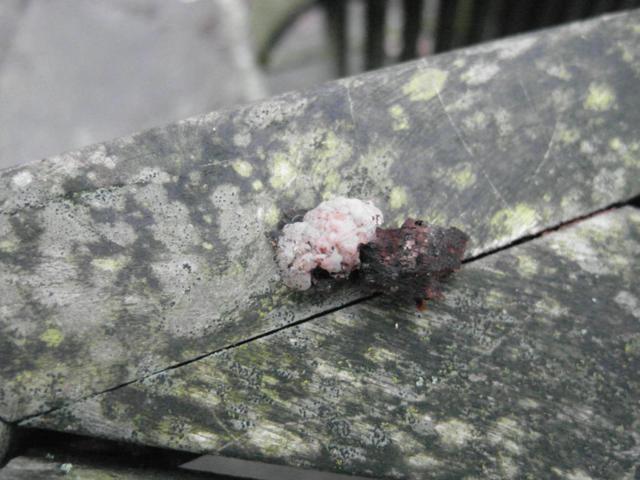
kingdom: Fungi
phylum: Basidiomycota
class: Agaricomycetes
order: Auriculariales
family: Hyaloriaceae
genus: Myxarium
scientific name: Myxarium nucleatum
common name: klar bævretop
